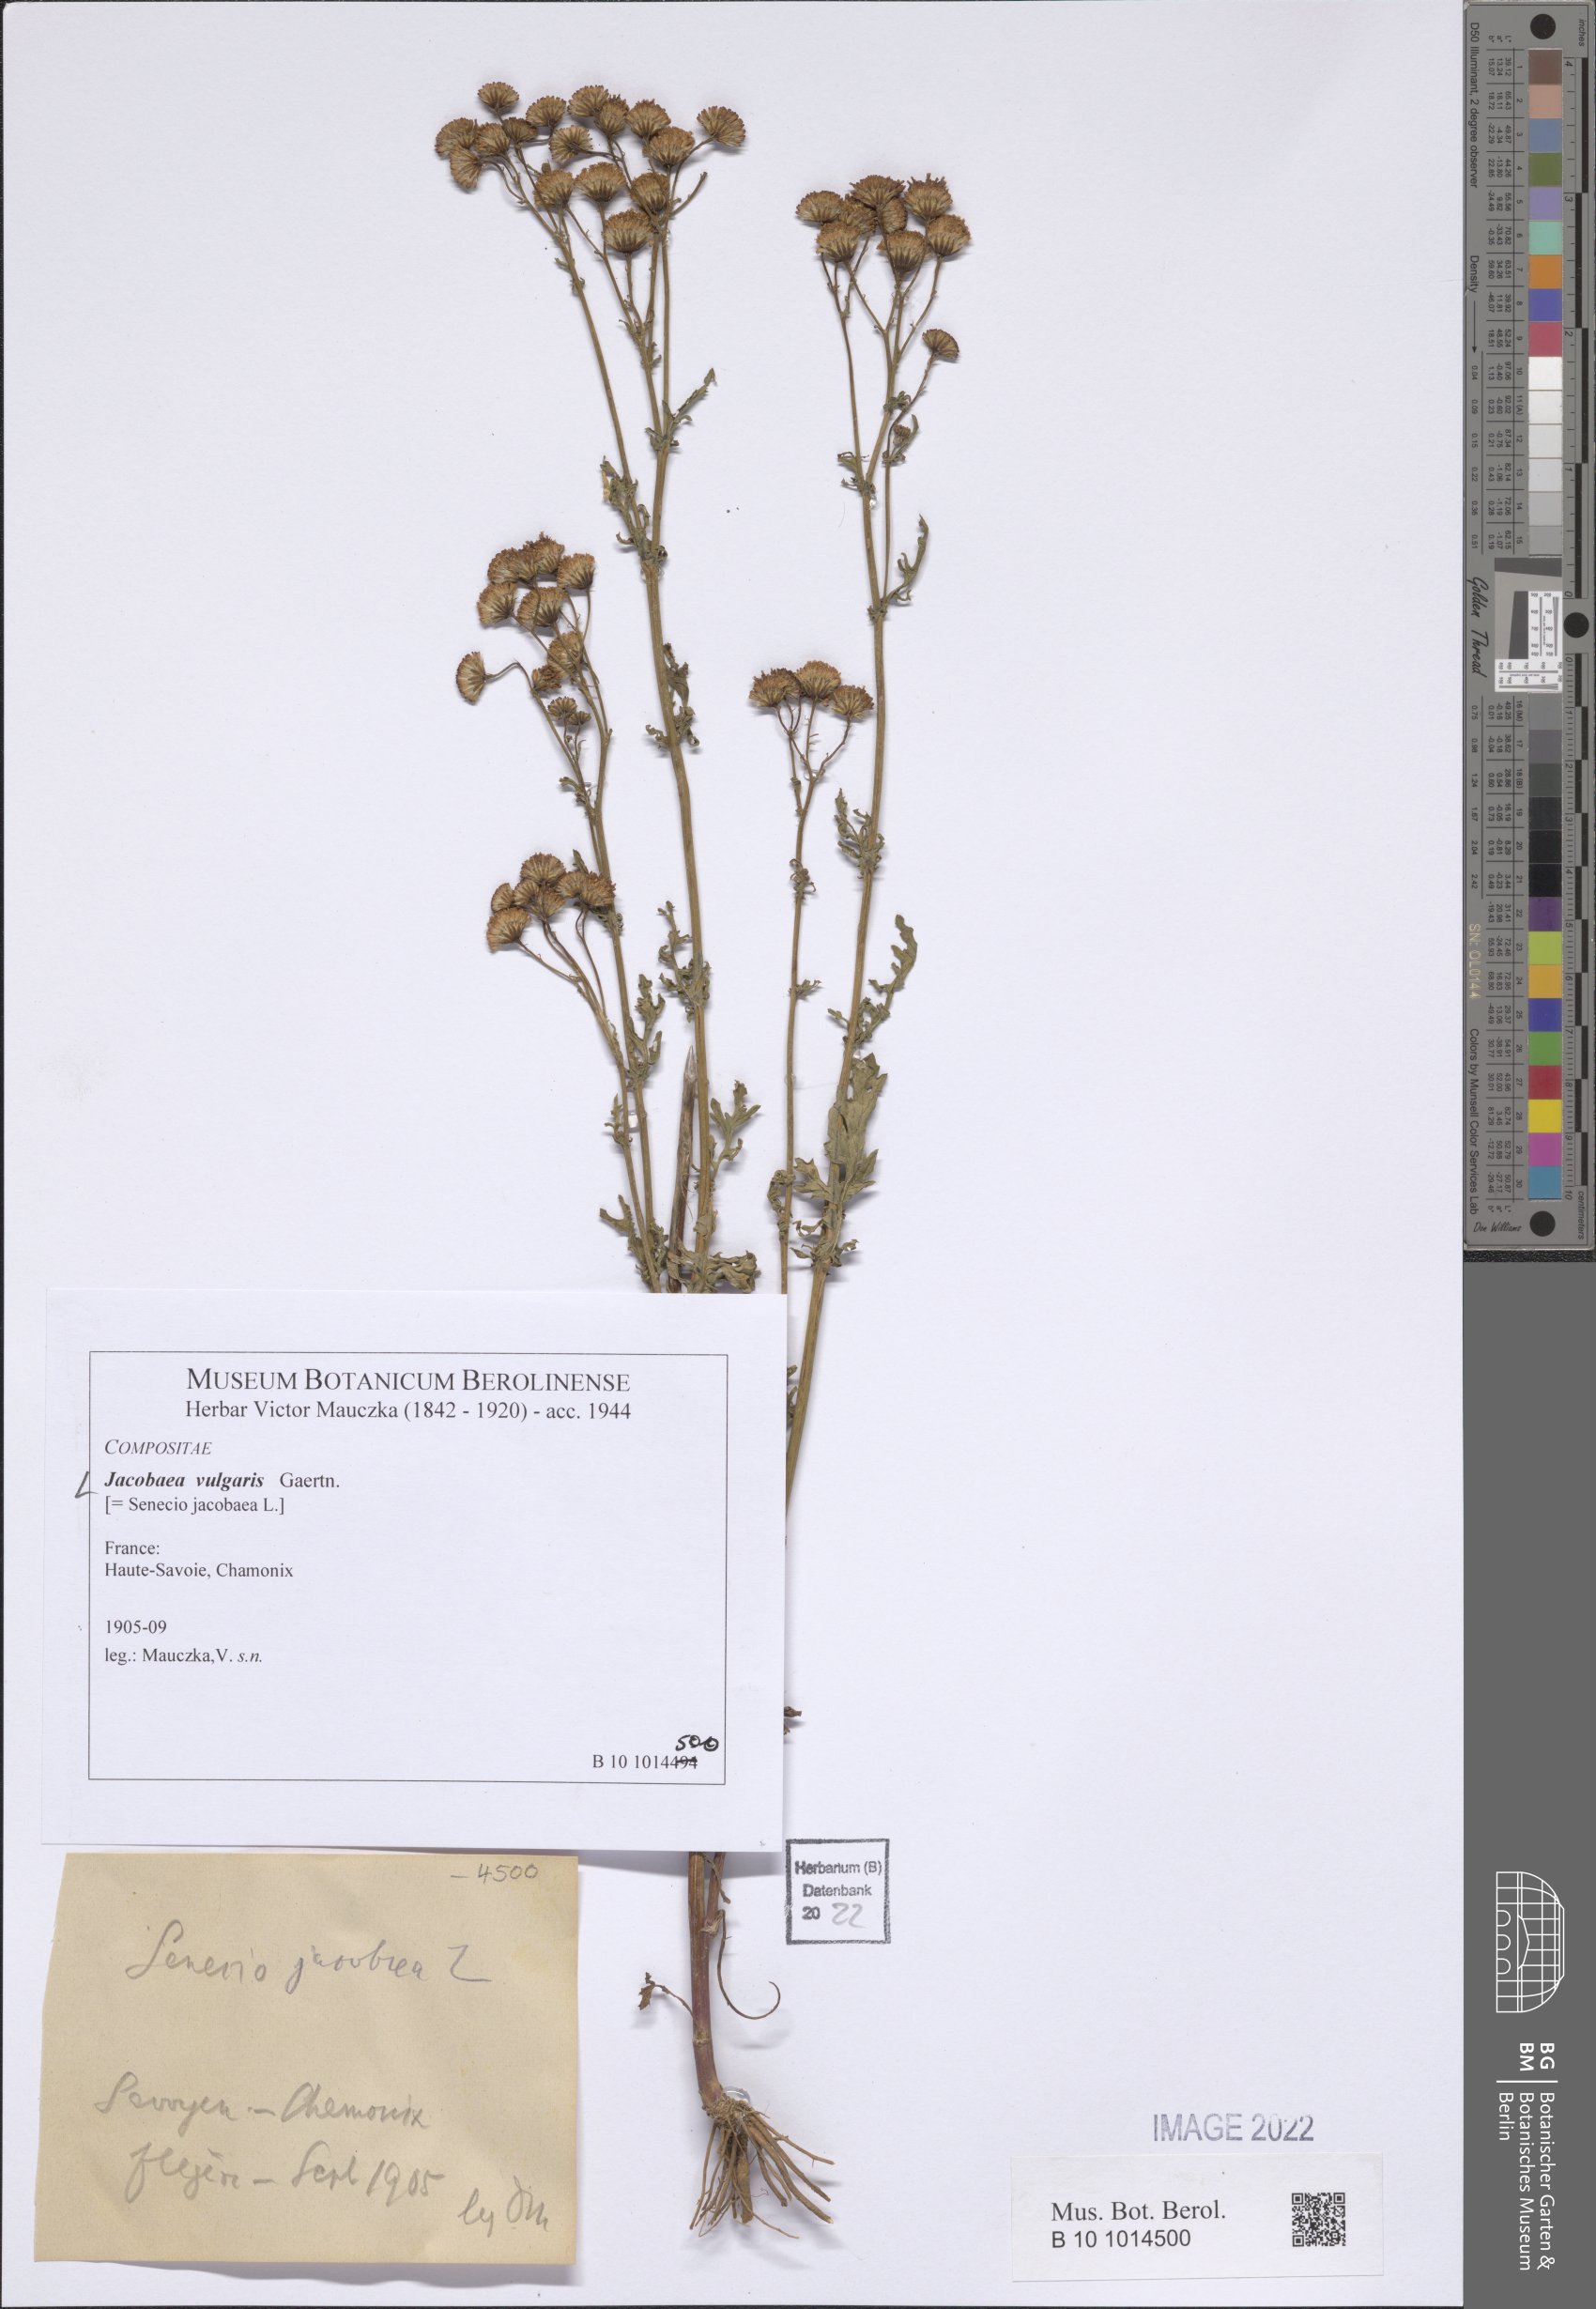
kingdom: Plantae
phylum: Tracheophyta
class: Magnoliopsida
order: Asterales
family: Asteraceae
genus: Jacobaea
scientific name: Jacobaea vulgaris
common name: Stinking willie
